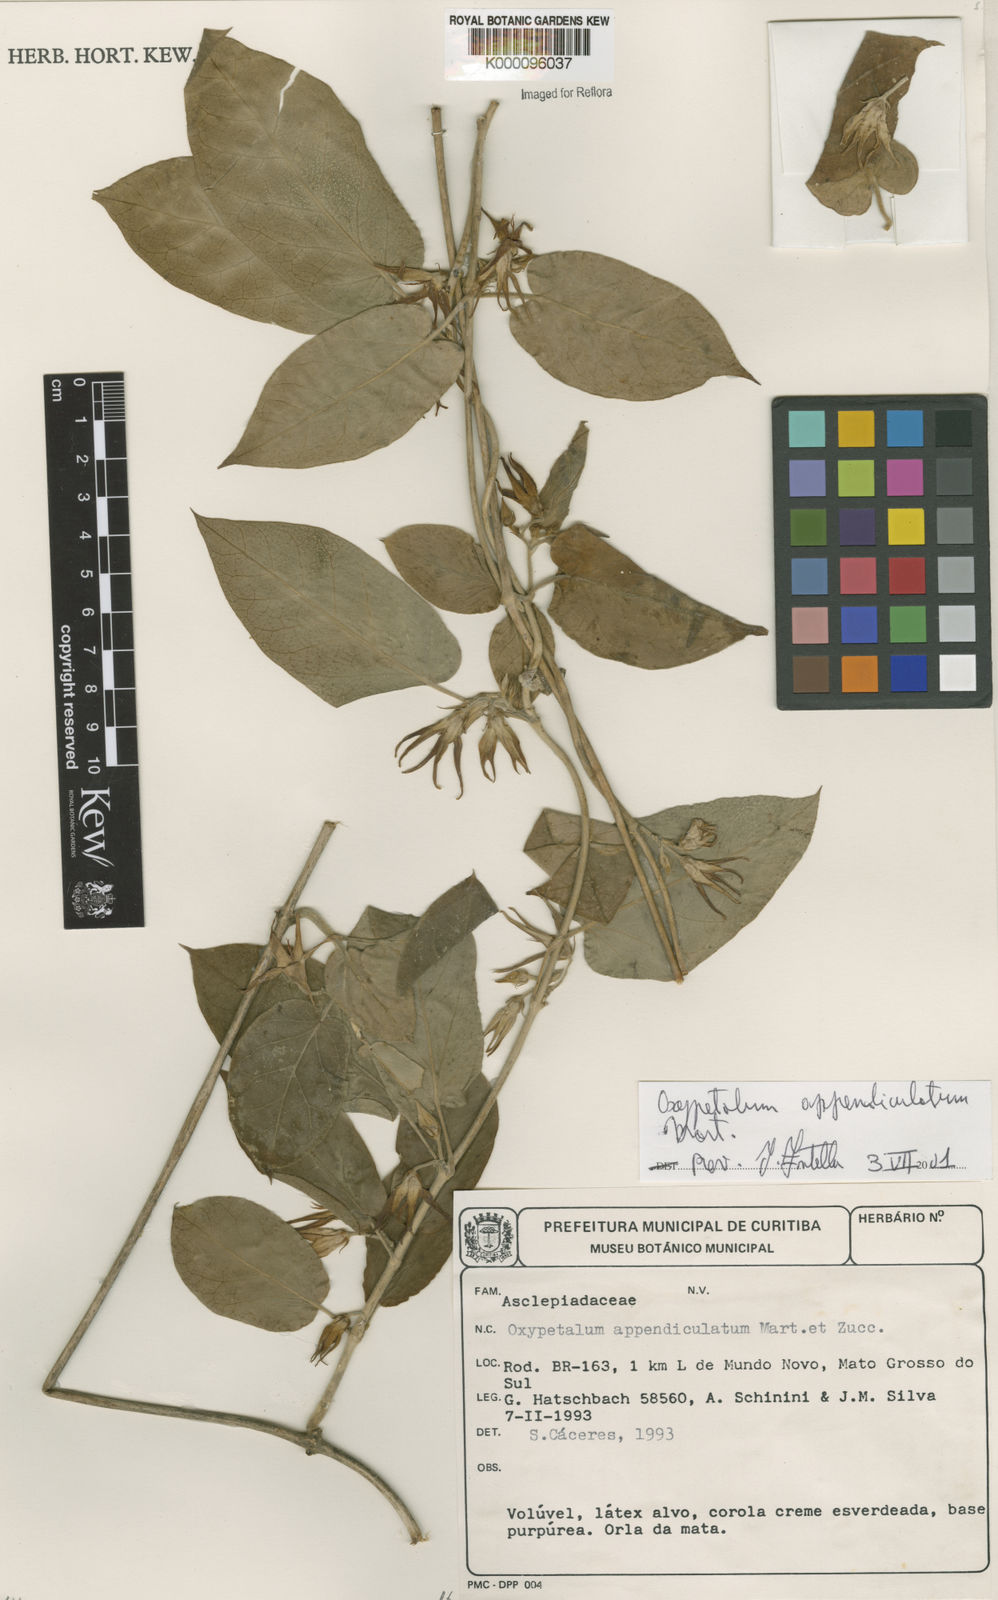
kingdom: Plantae
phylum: Tracheophyta
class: Magnoliopsida
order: Gentianales
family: Apocynaceae
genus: Oxypetalum
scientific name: Oxypetalum appendiculatum
